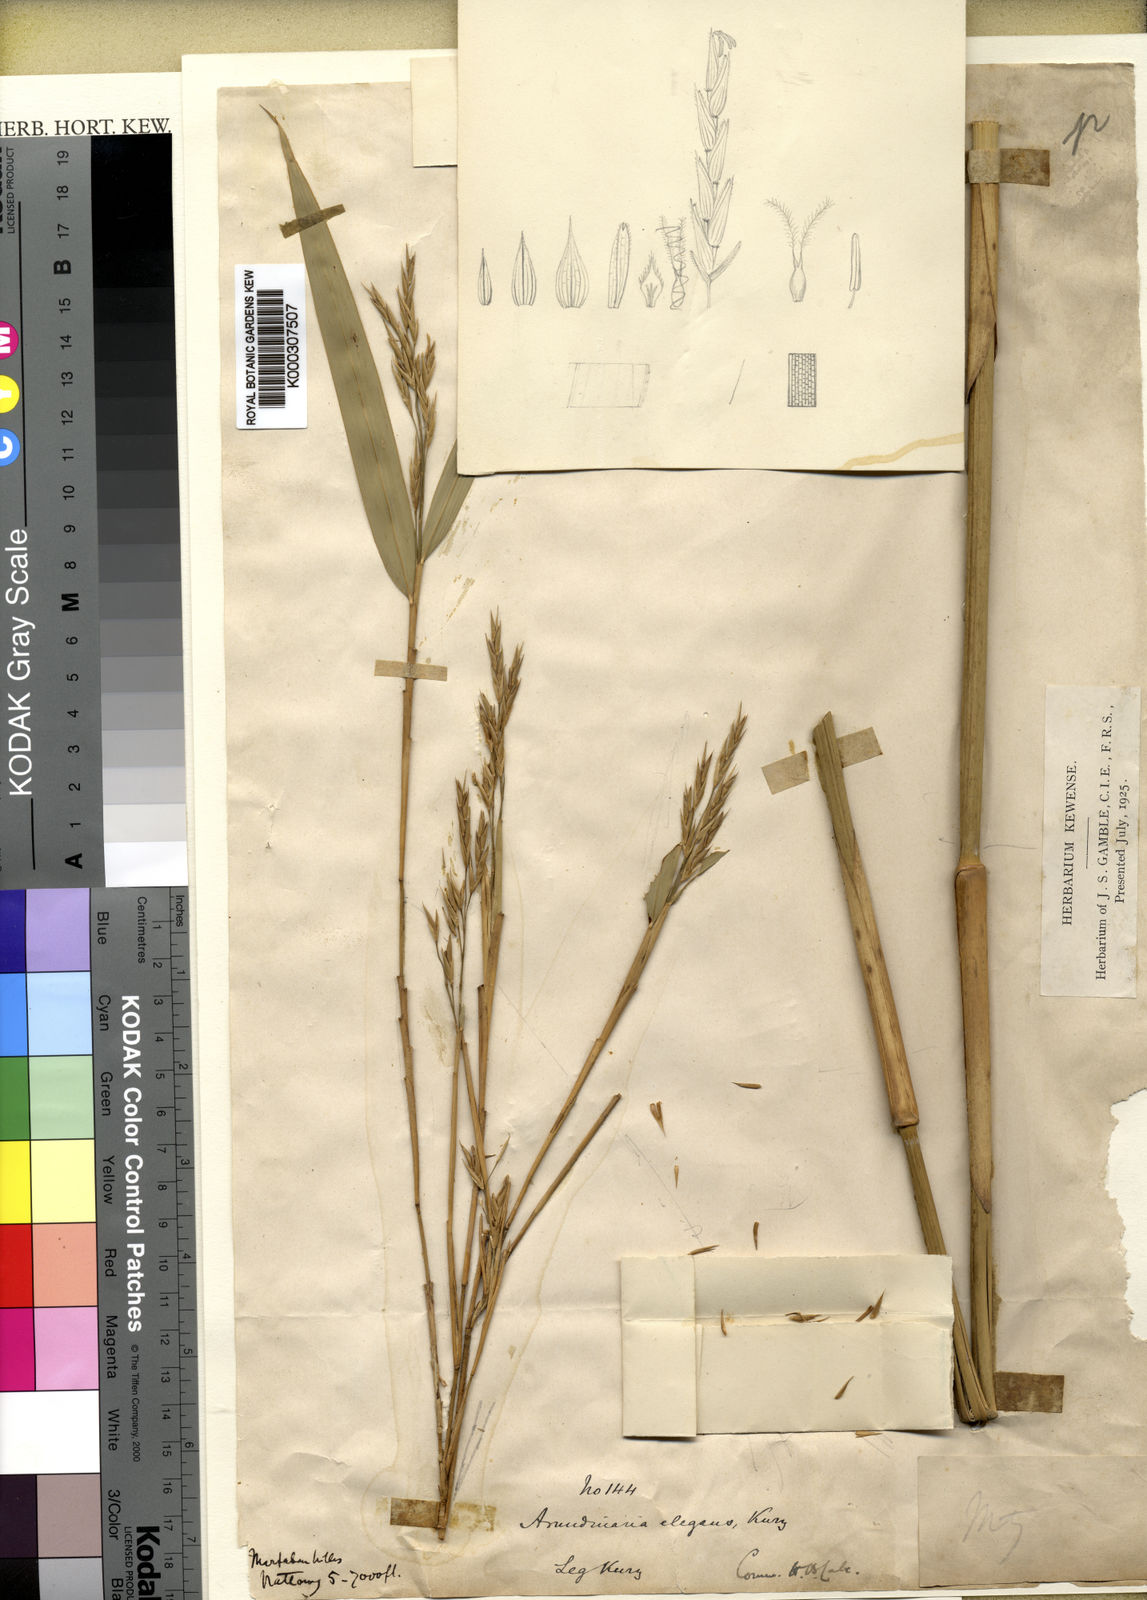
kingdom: Plantae
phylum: Tracheophyta
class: Liliopsida
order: Poales
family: Poaceae
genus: Yushania
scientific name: Yushania elegans
